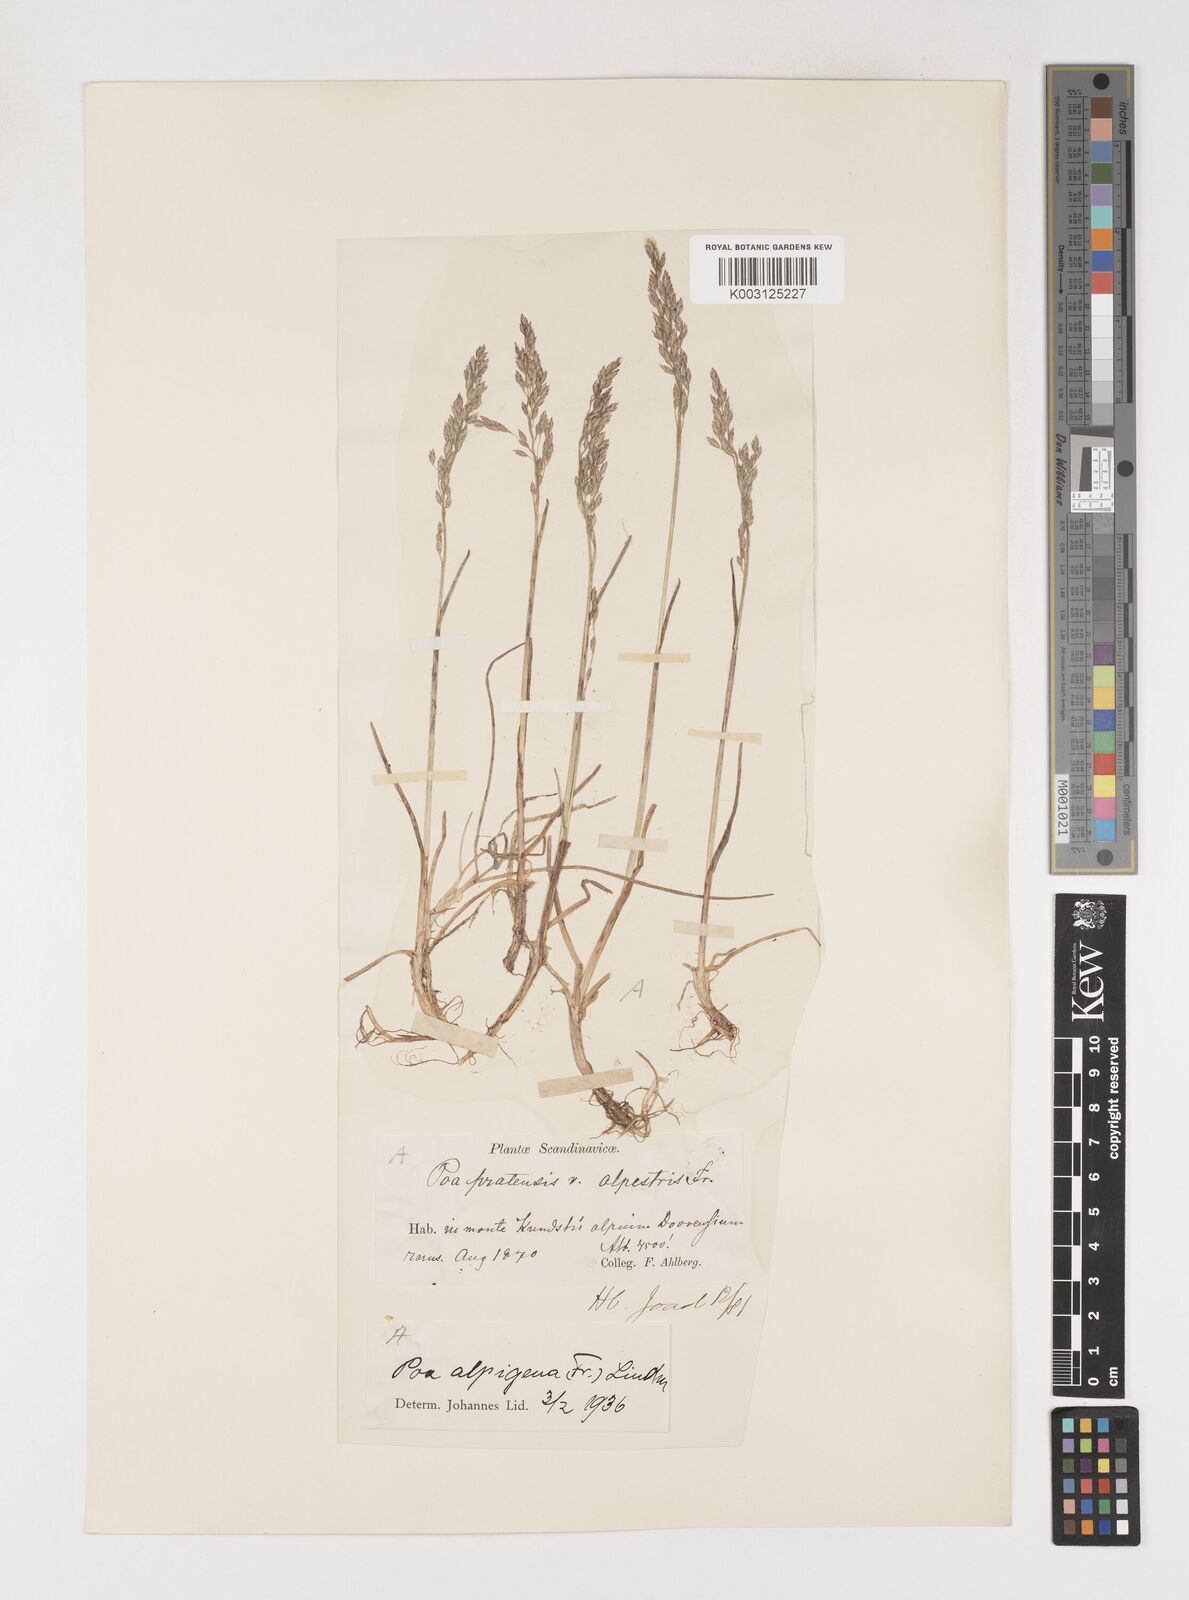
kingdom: Plantae
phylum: Tracheophyta
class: Liliopsida
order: Poales
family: Poaceae
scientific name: Poaceae
